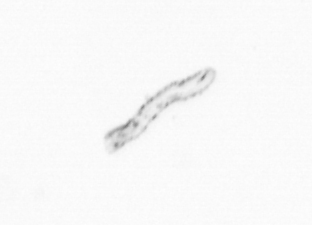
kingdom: Chromista
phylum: Ochrophyta
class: Bacillariophyceae
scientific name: Bacillariophyceae
